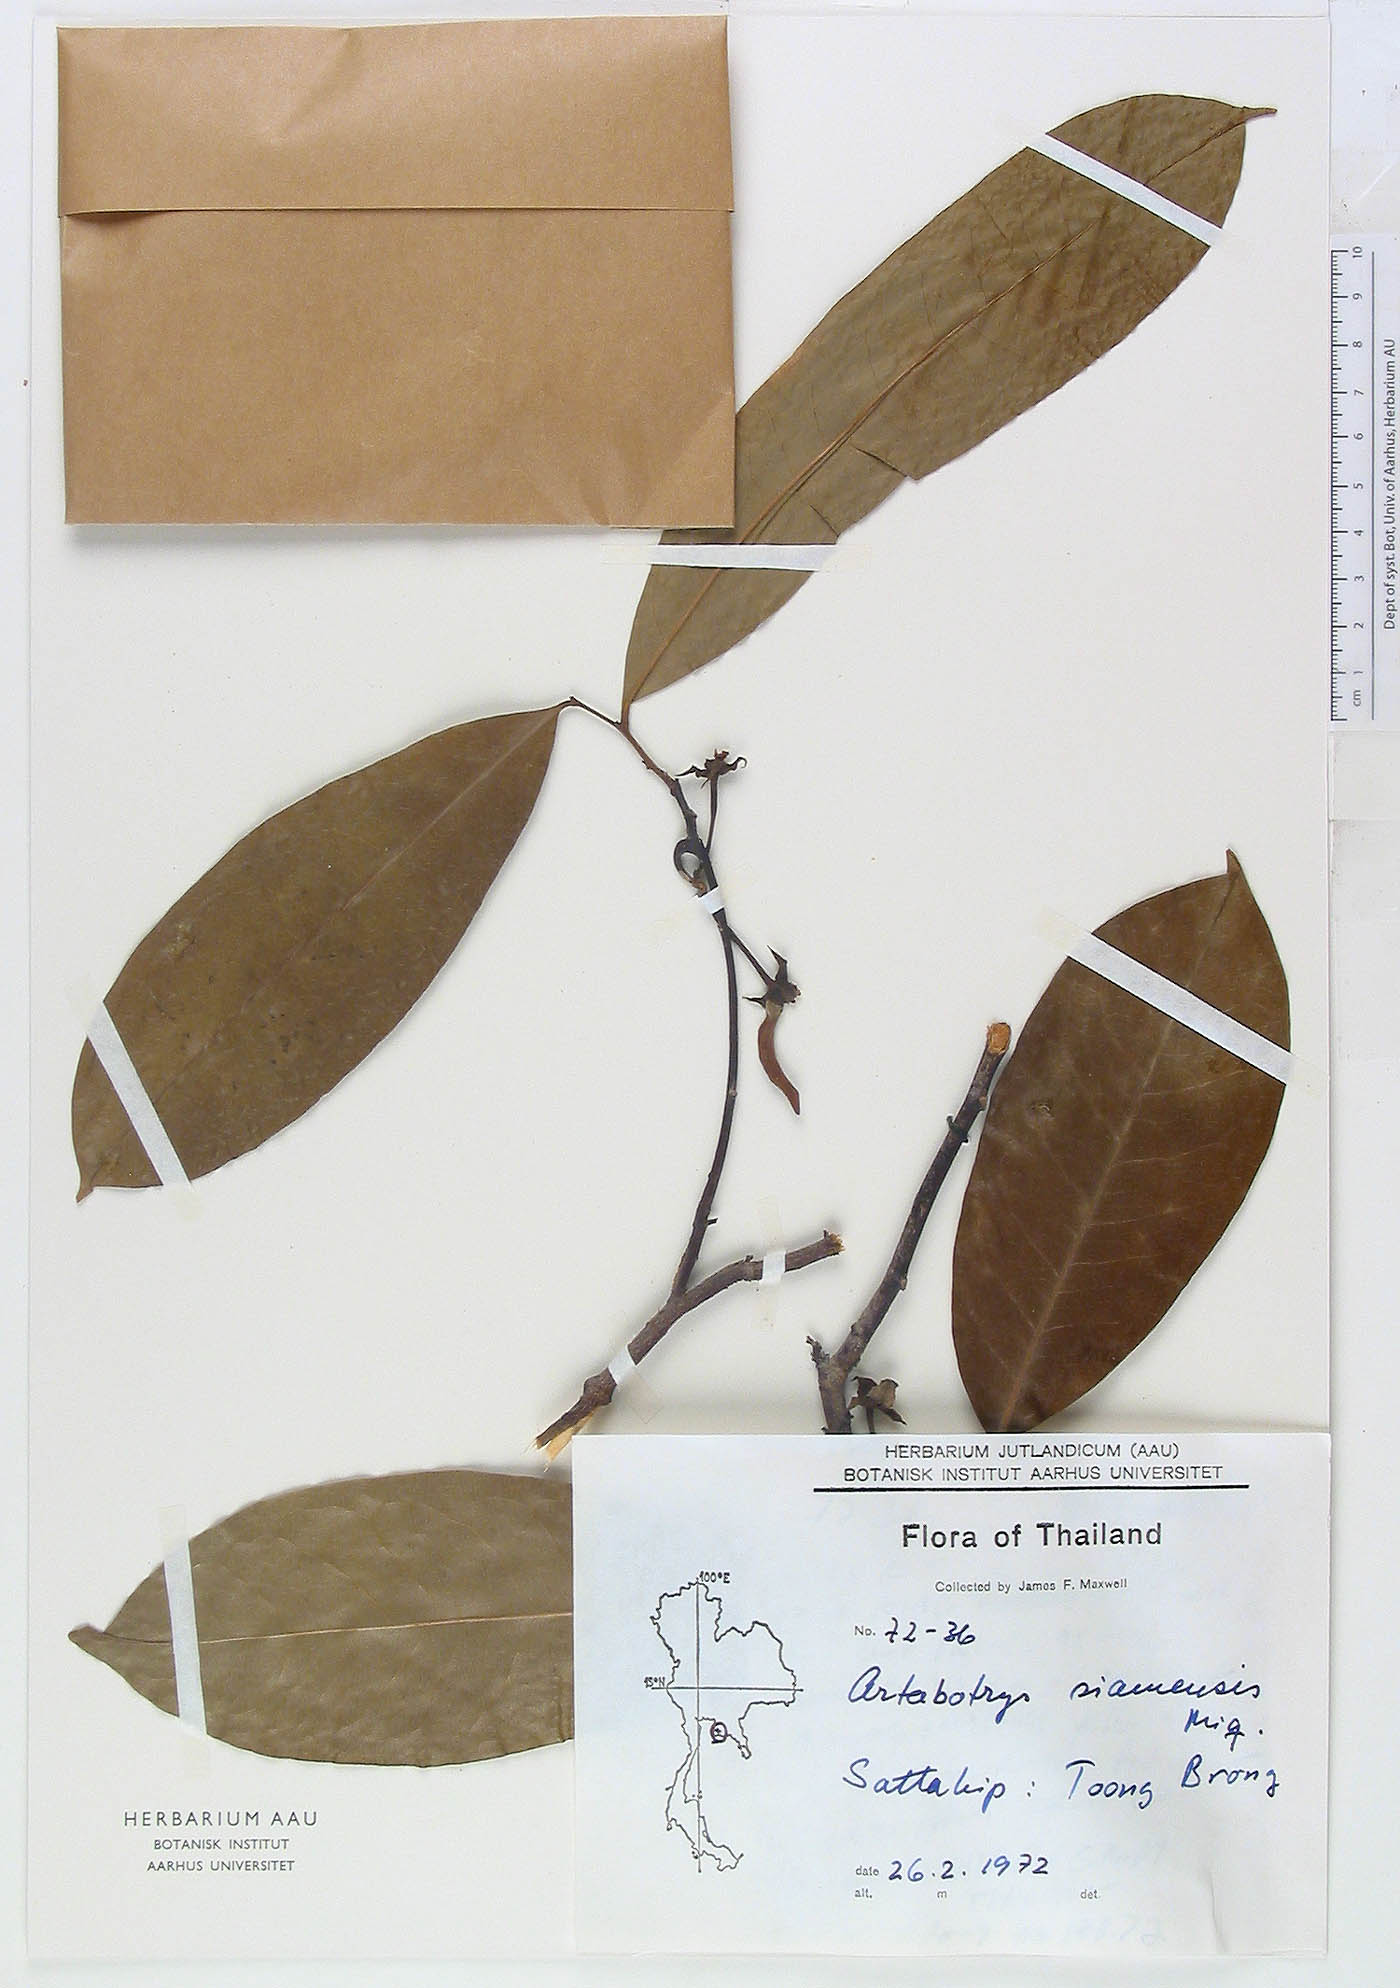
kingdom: Plantae
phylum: Tracheophyta
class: Magnoliopsida
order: Magnoliales
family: Annonaceae
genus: Artabotrys
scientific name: Artabotrys siamensis
